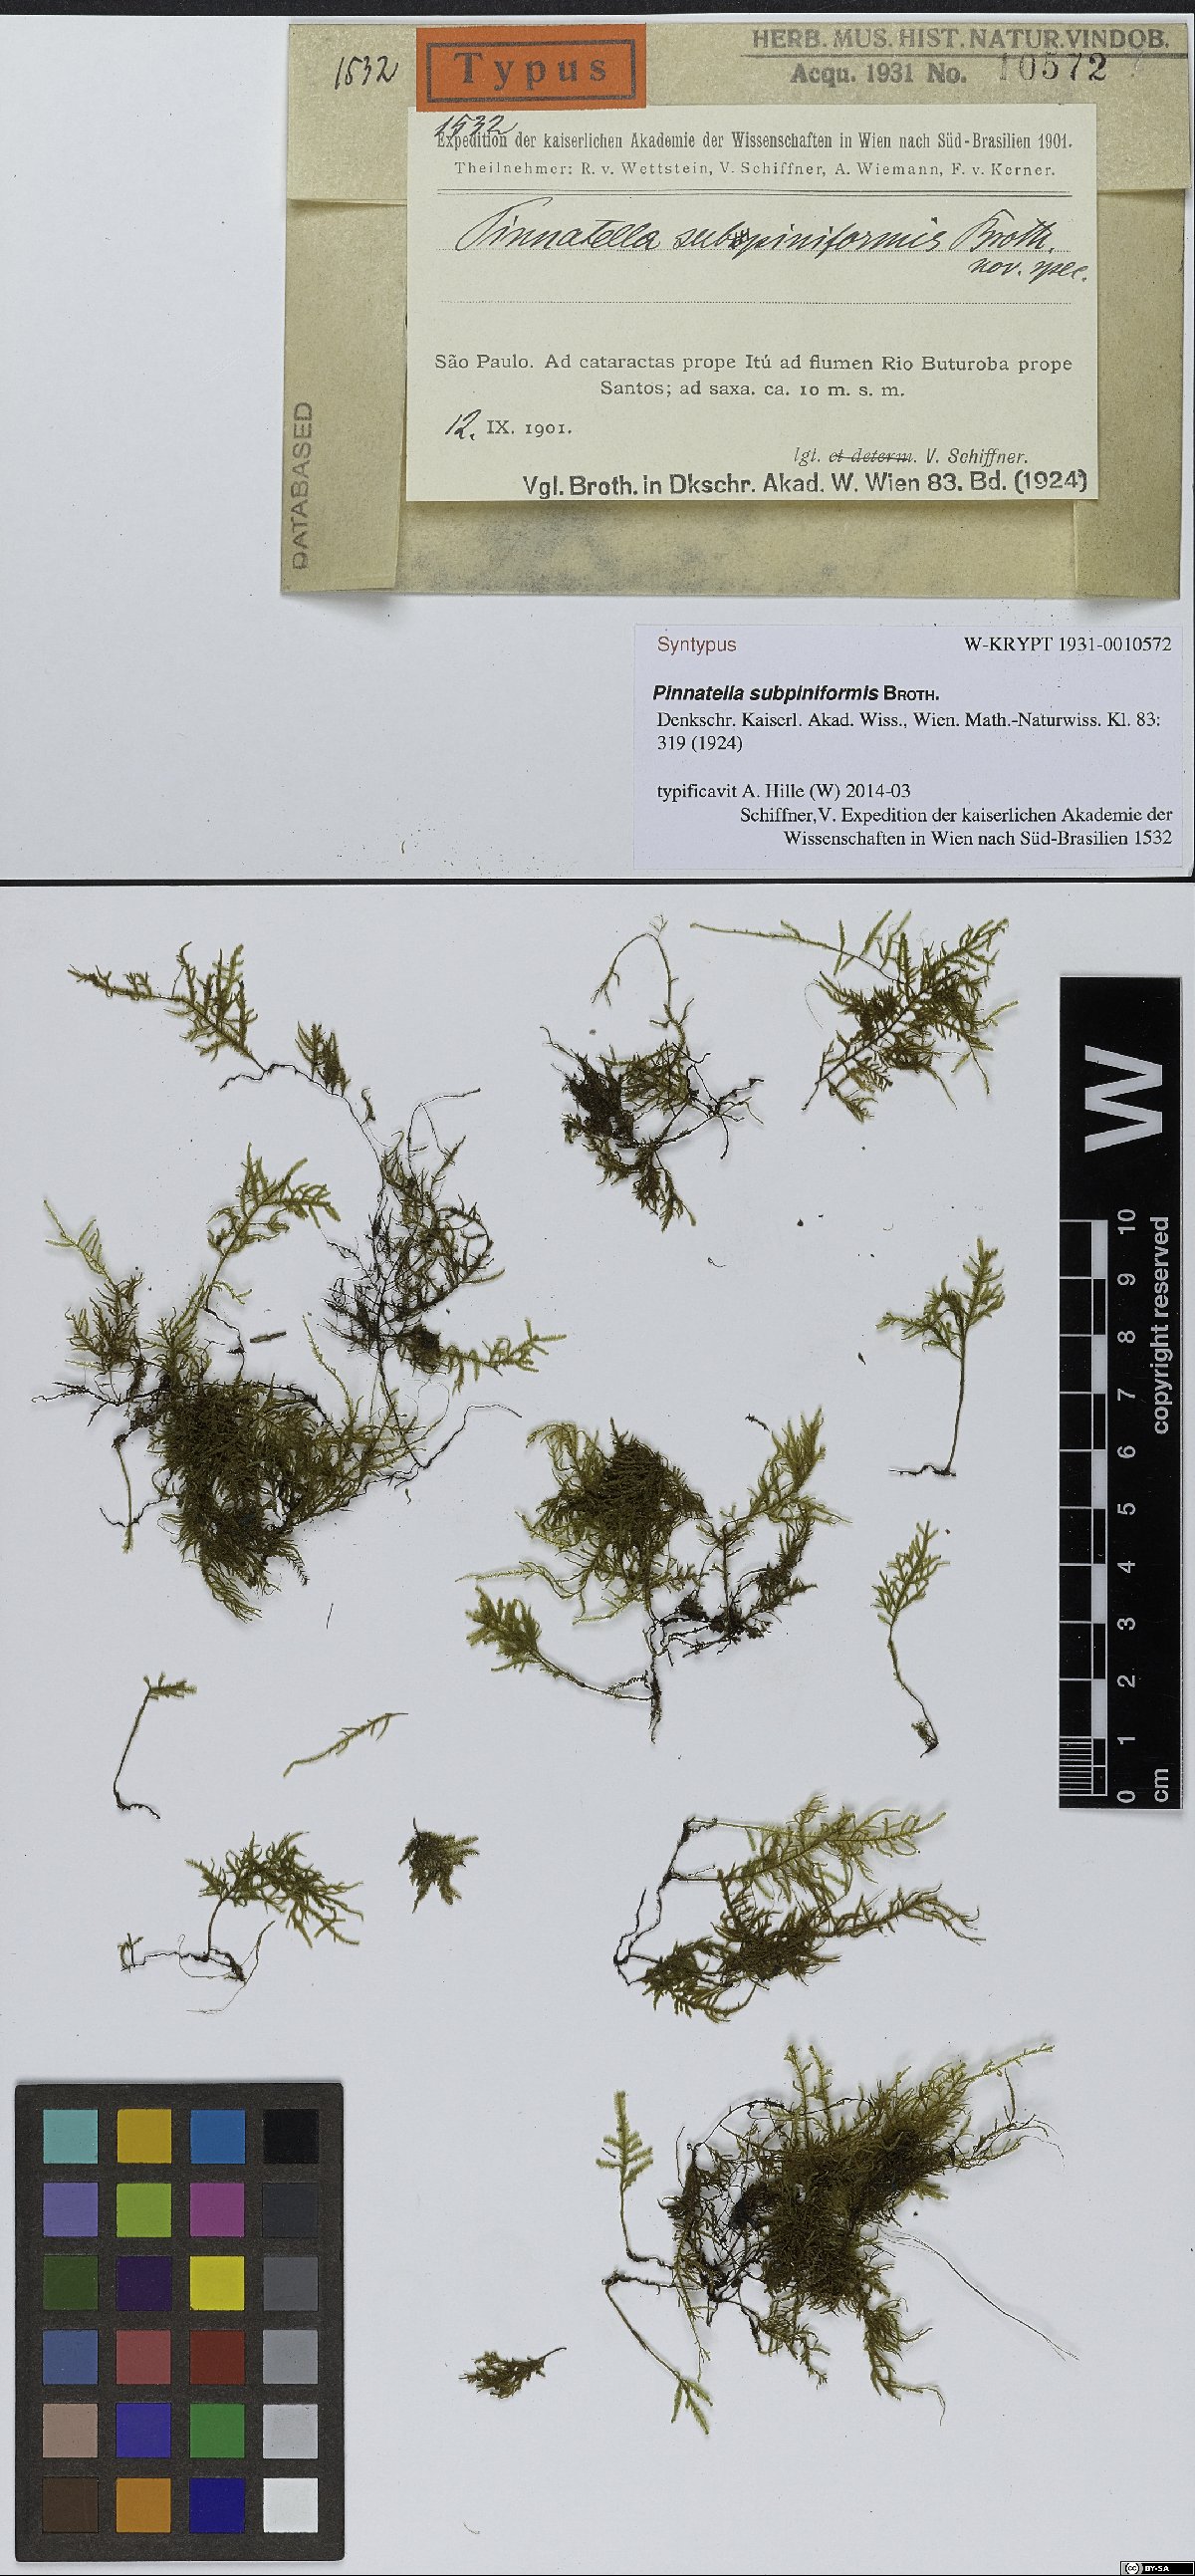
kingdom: Plantae
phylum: Bryophyta
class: Bryopsida
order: Hypnales
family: Orthostichellaceae
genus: Pinnatidendron
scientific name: Pinnatidendron piniforme
